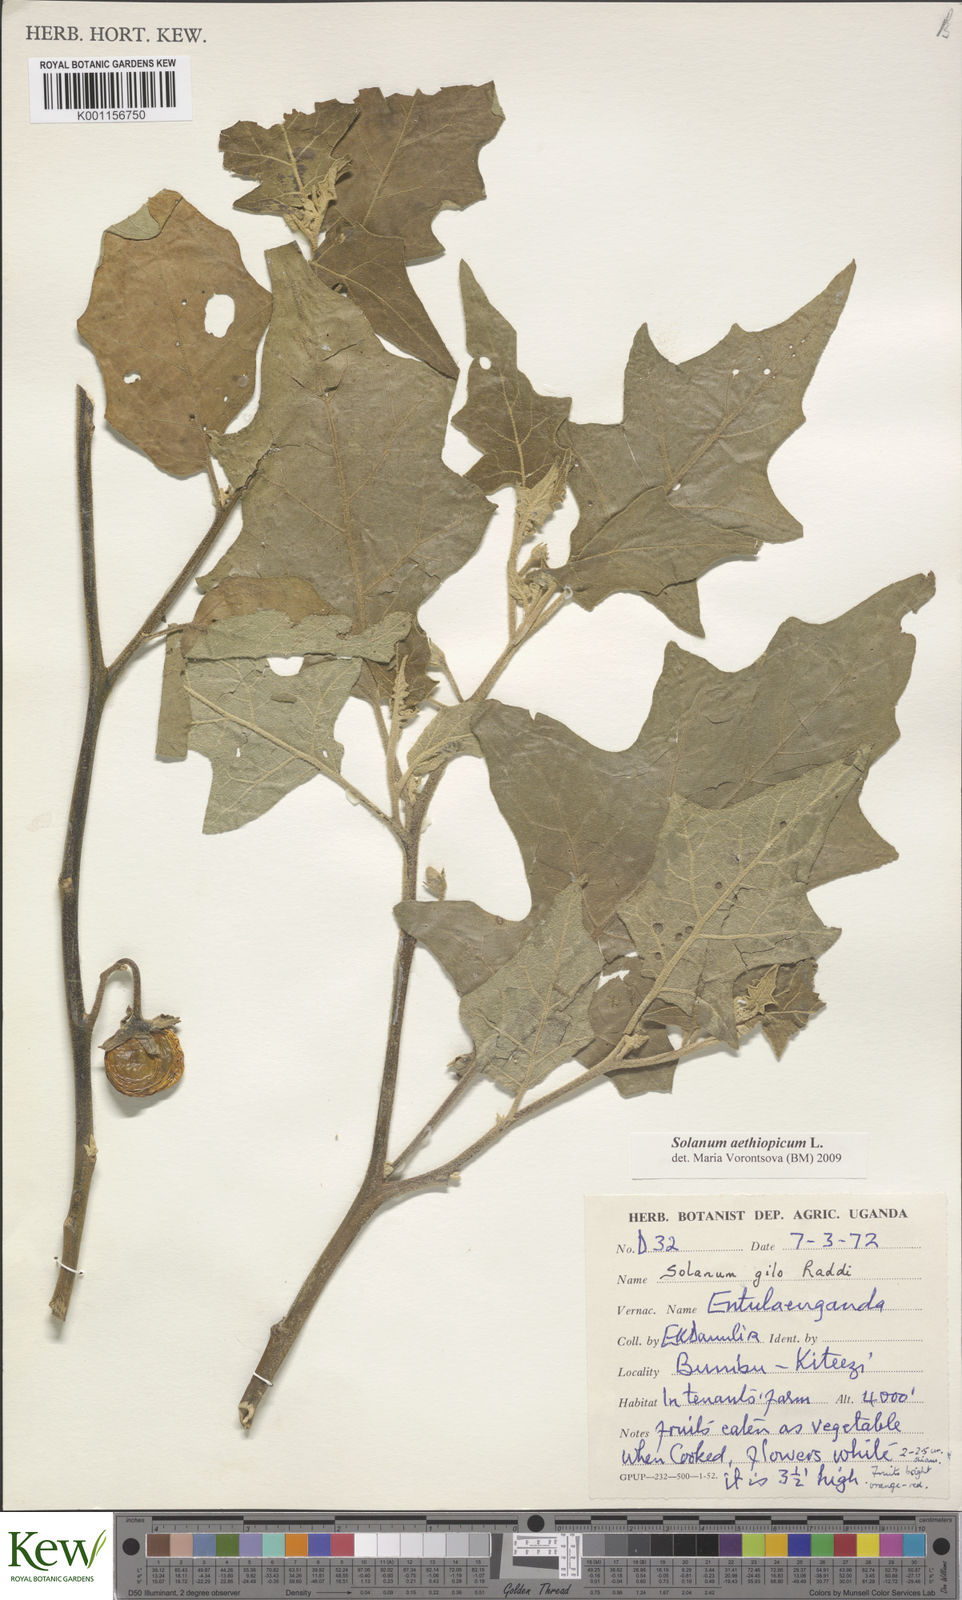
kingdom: Plantae
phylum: Tracheophyta
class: Magnoliopsida
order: Solanales
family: Solanaceae
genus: Solanum
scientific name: Solanum aethiopicum
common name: Gilo
